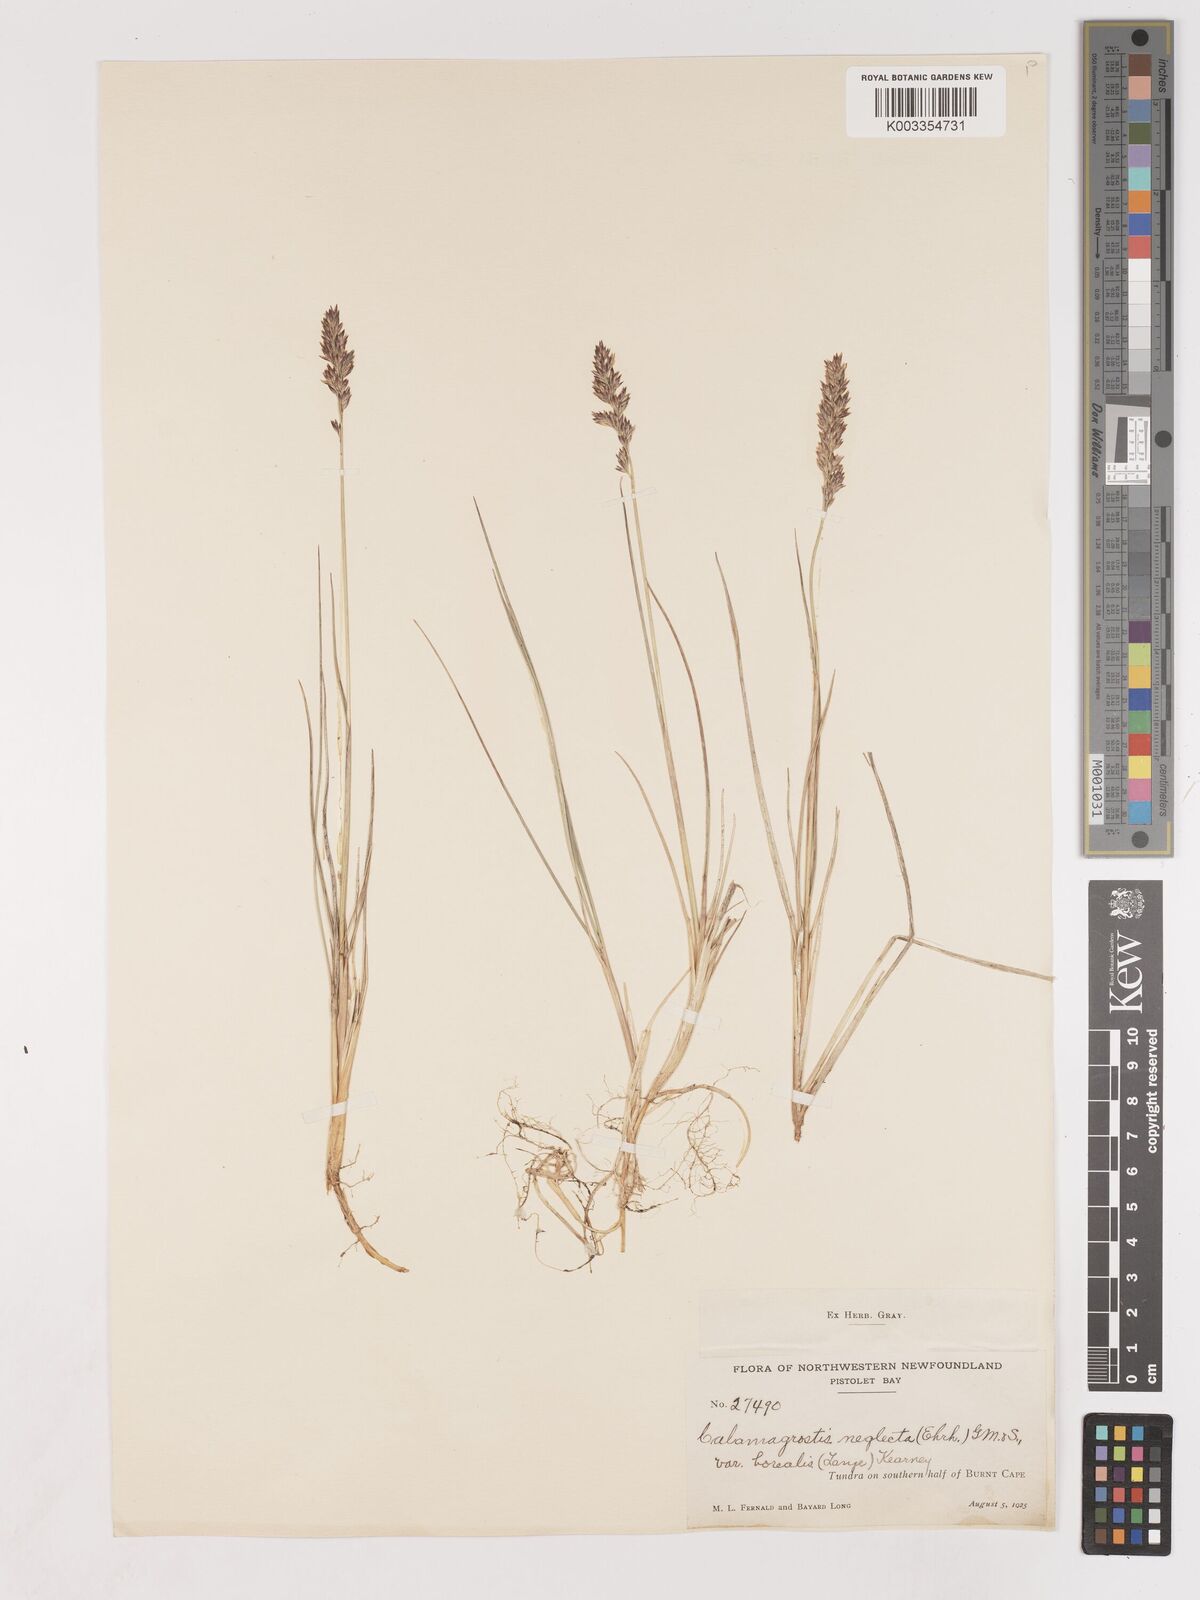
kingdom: Plantae
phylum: Tracheophyta
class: Liliopsida
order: Poales
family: Poaceae
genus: Cinnagrostis
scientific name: Cinnagrostis recta
